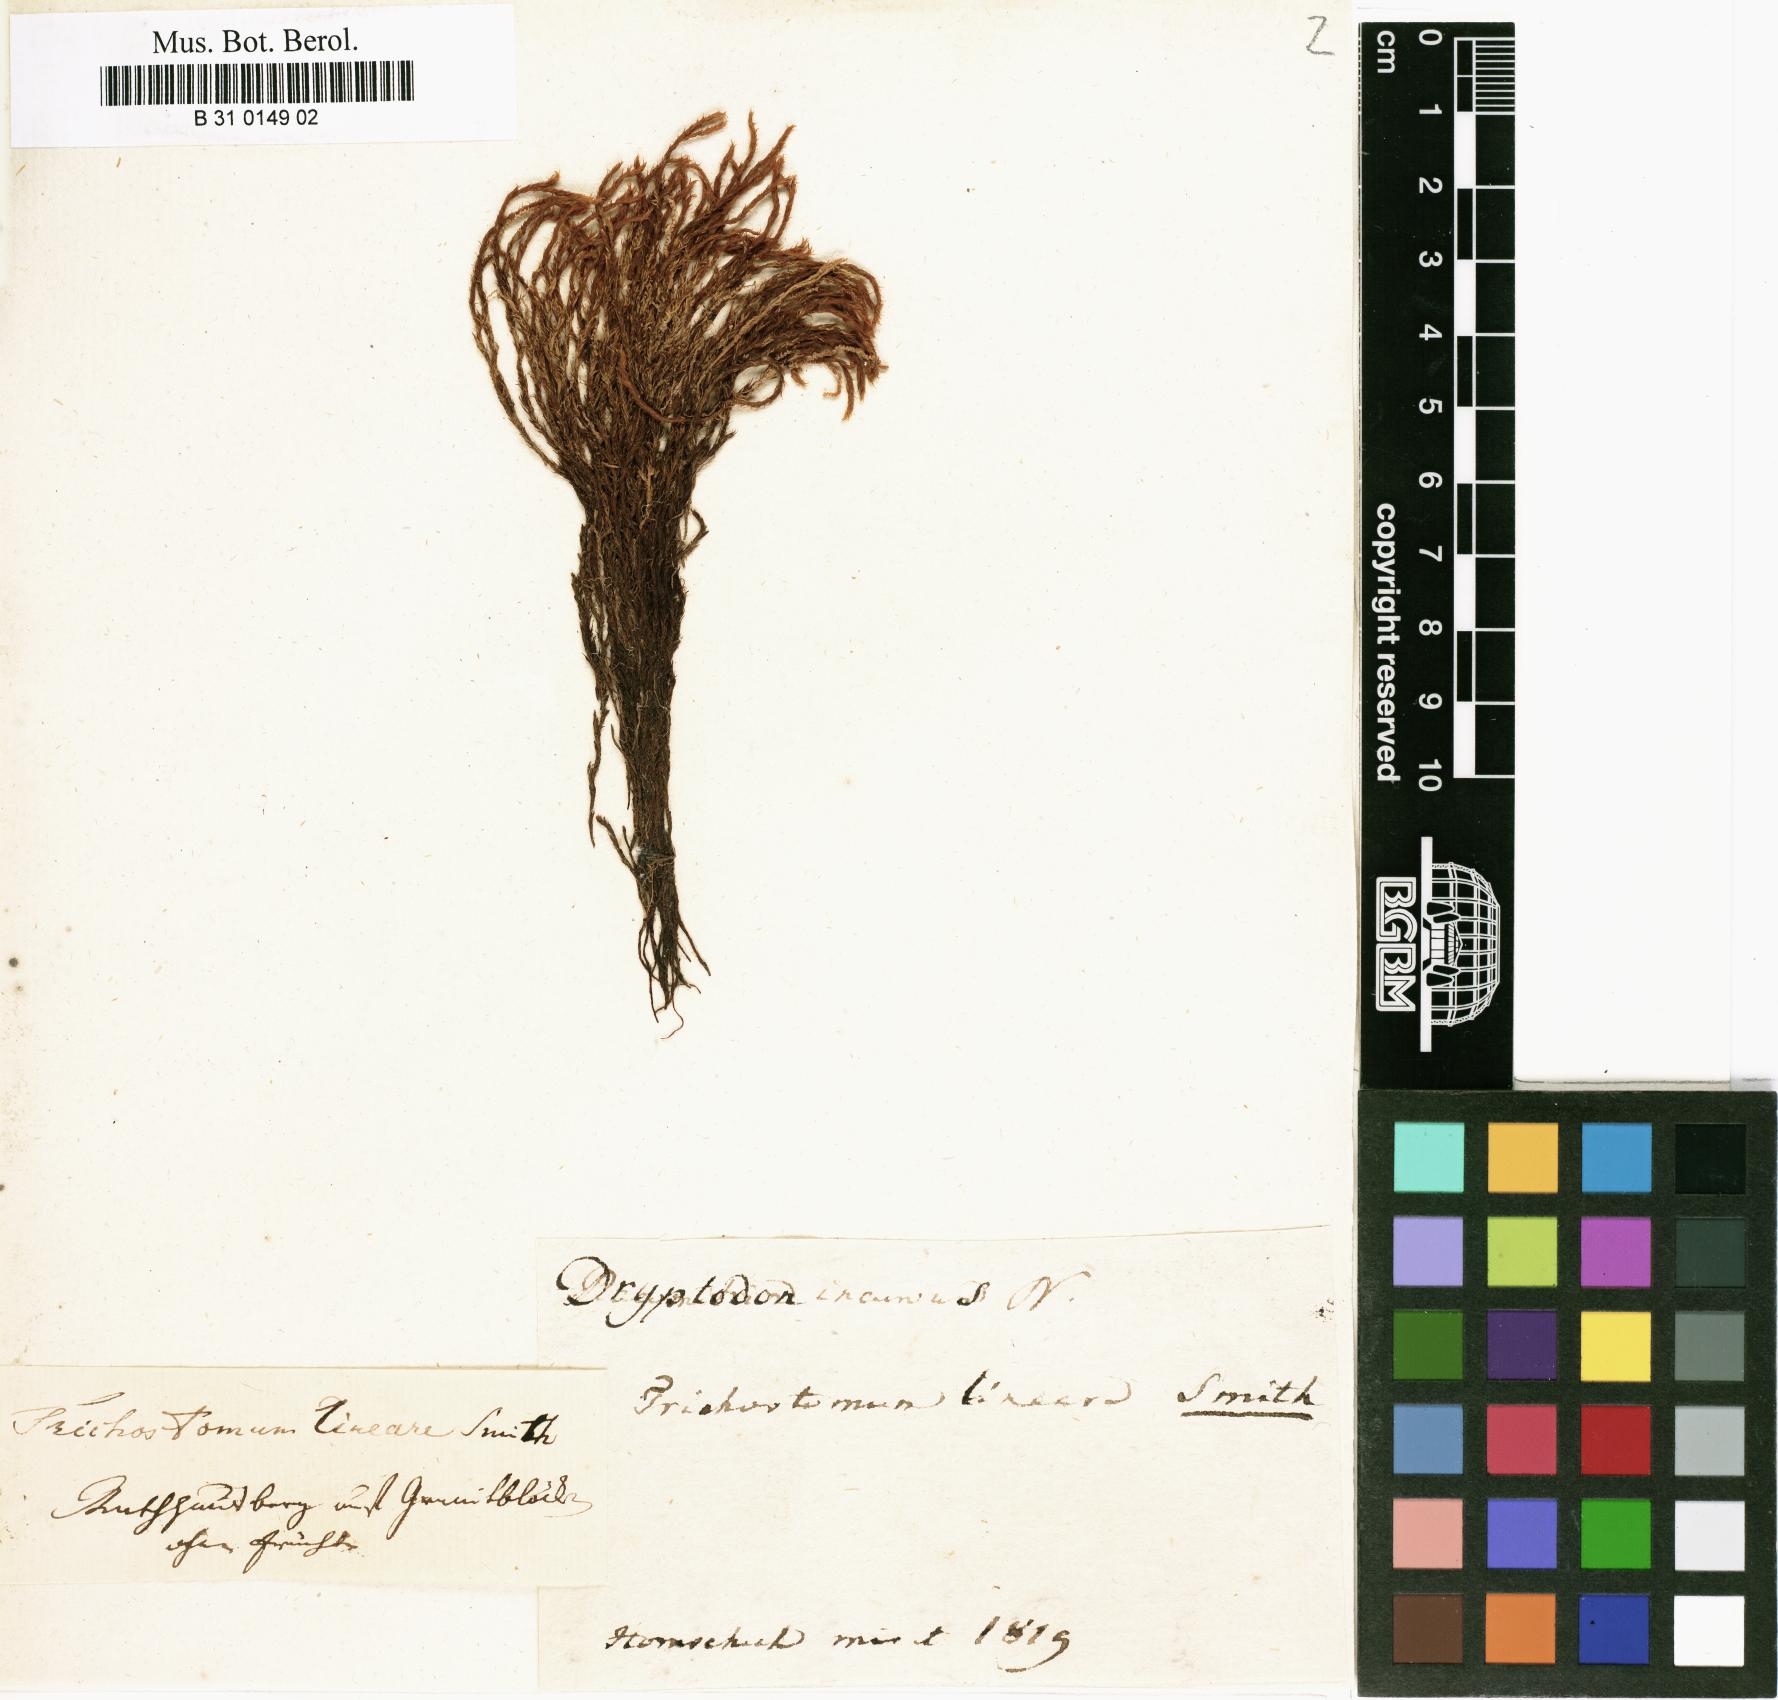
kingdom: Plantae
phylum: Bryophyta
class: Bryopsida
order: Grimmiales
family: Grimmiaceae
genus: Grimmia
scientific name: Grimmia elatior
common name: Large grimmia
